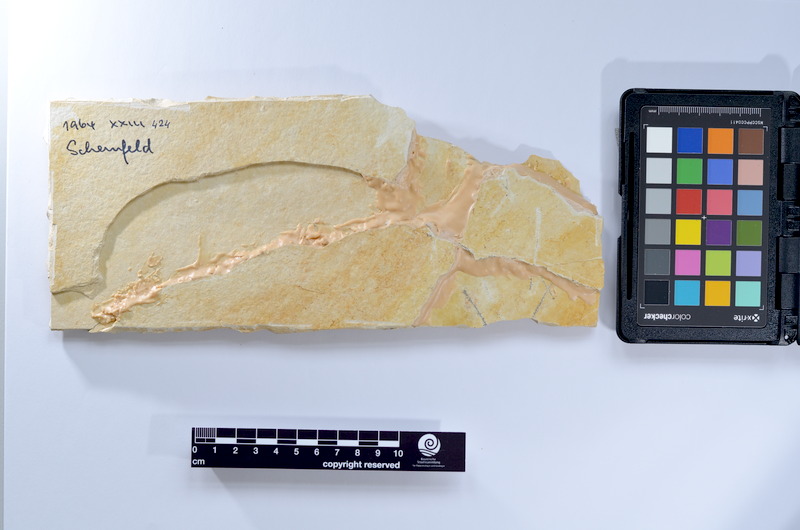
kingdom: Animalia
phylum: Chordata
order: Elopiformes
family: Anaethalionidae
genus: Anaethalion
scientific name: Anaethalion knorri
